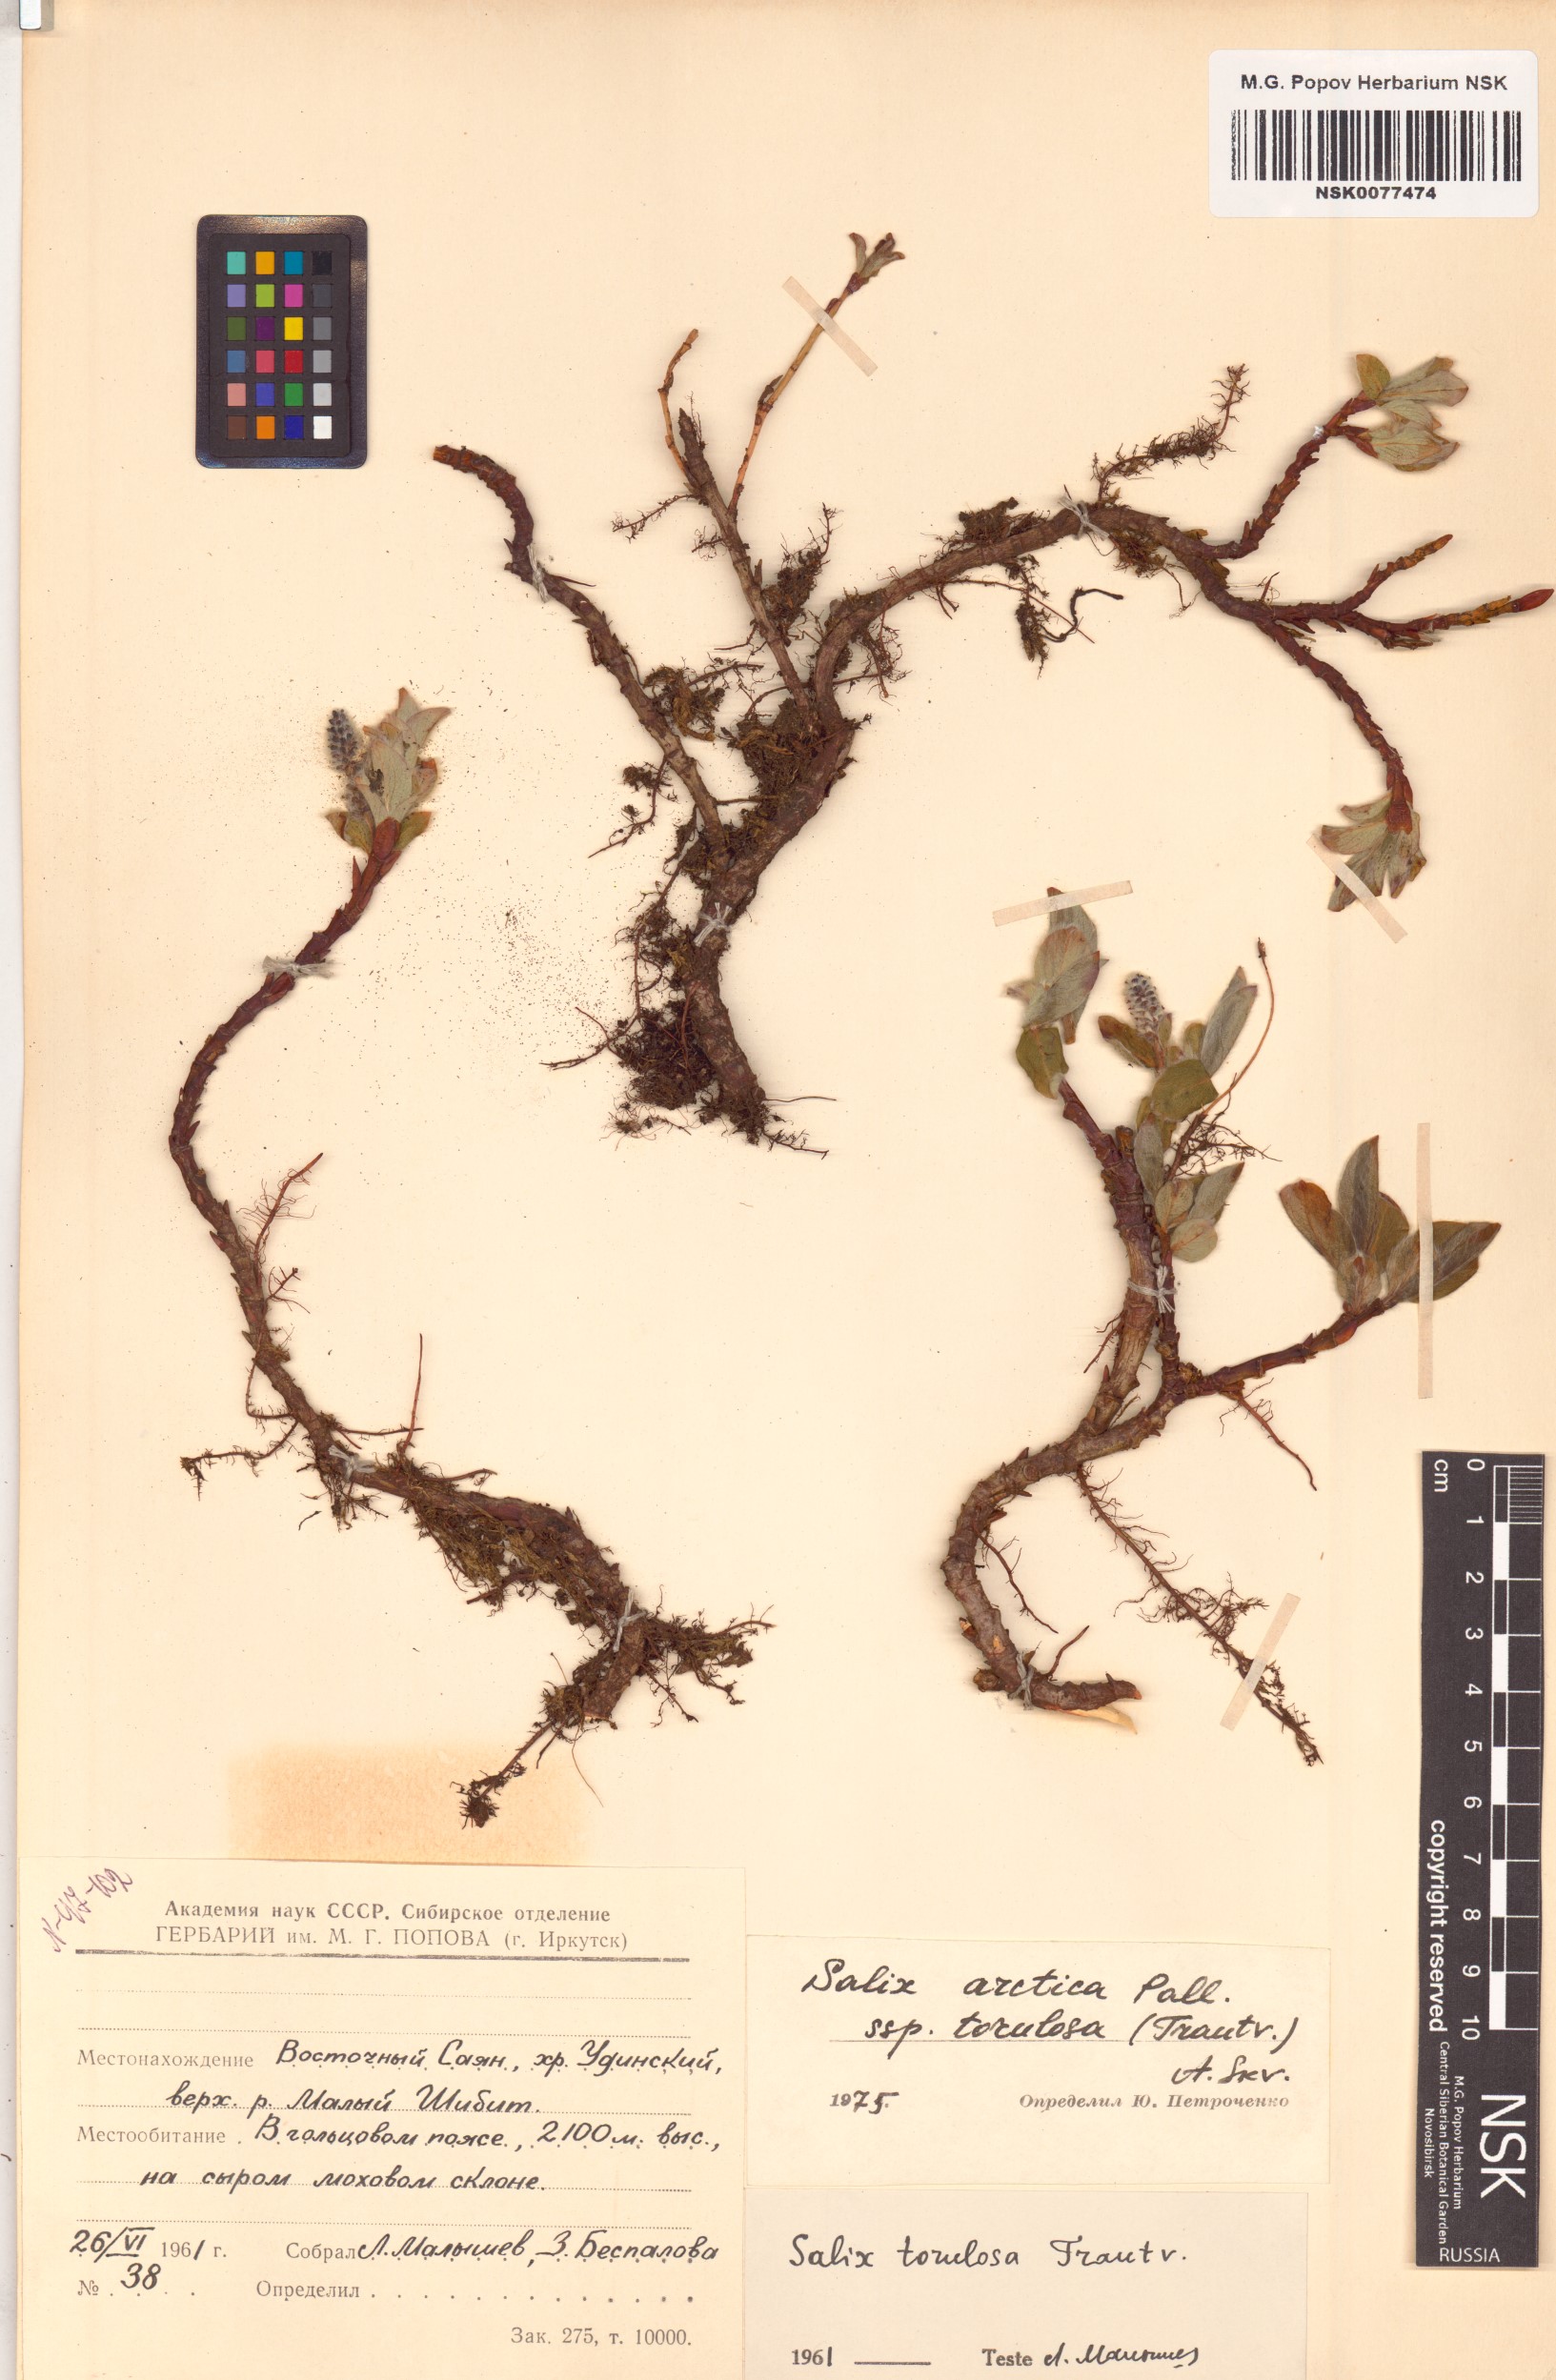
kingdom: Plantae
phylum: Tracheophyta
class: Magnoliopsida
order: Malpighiales
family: Salicaceae
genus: Salix
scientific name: Salix arctica
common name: Arctic willow
